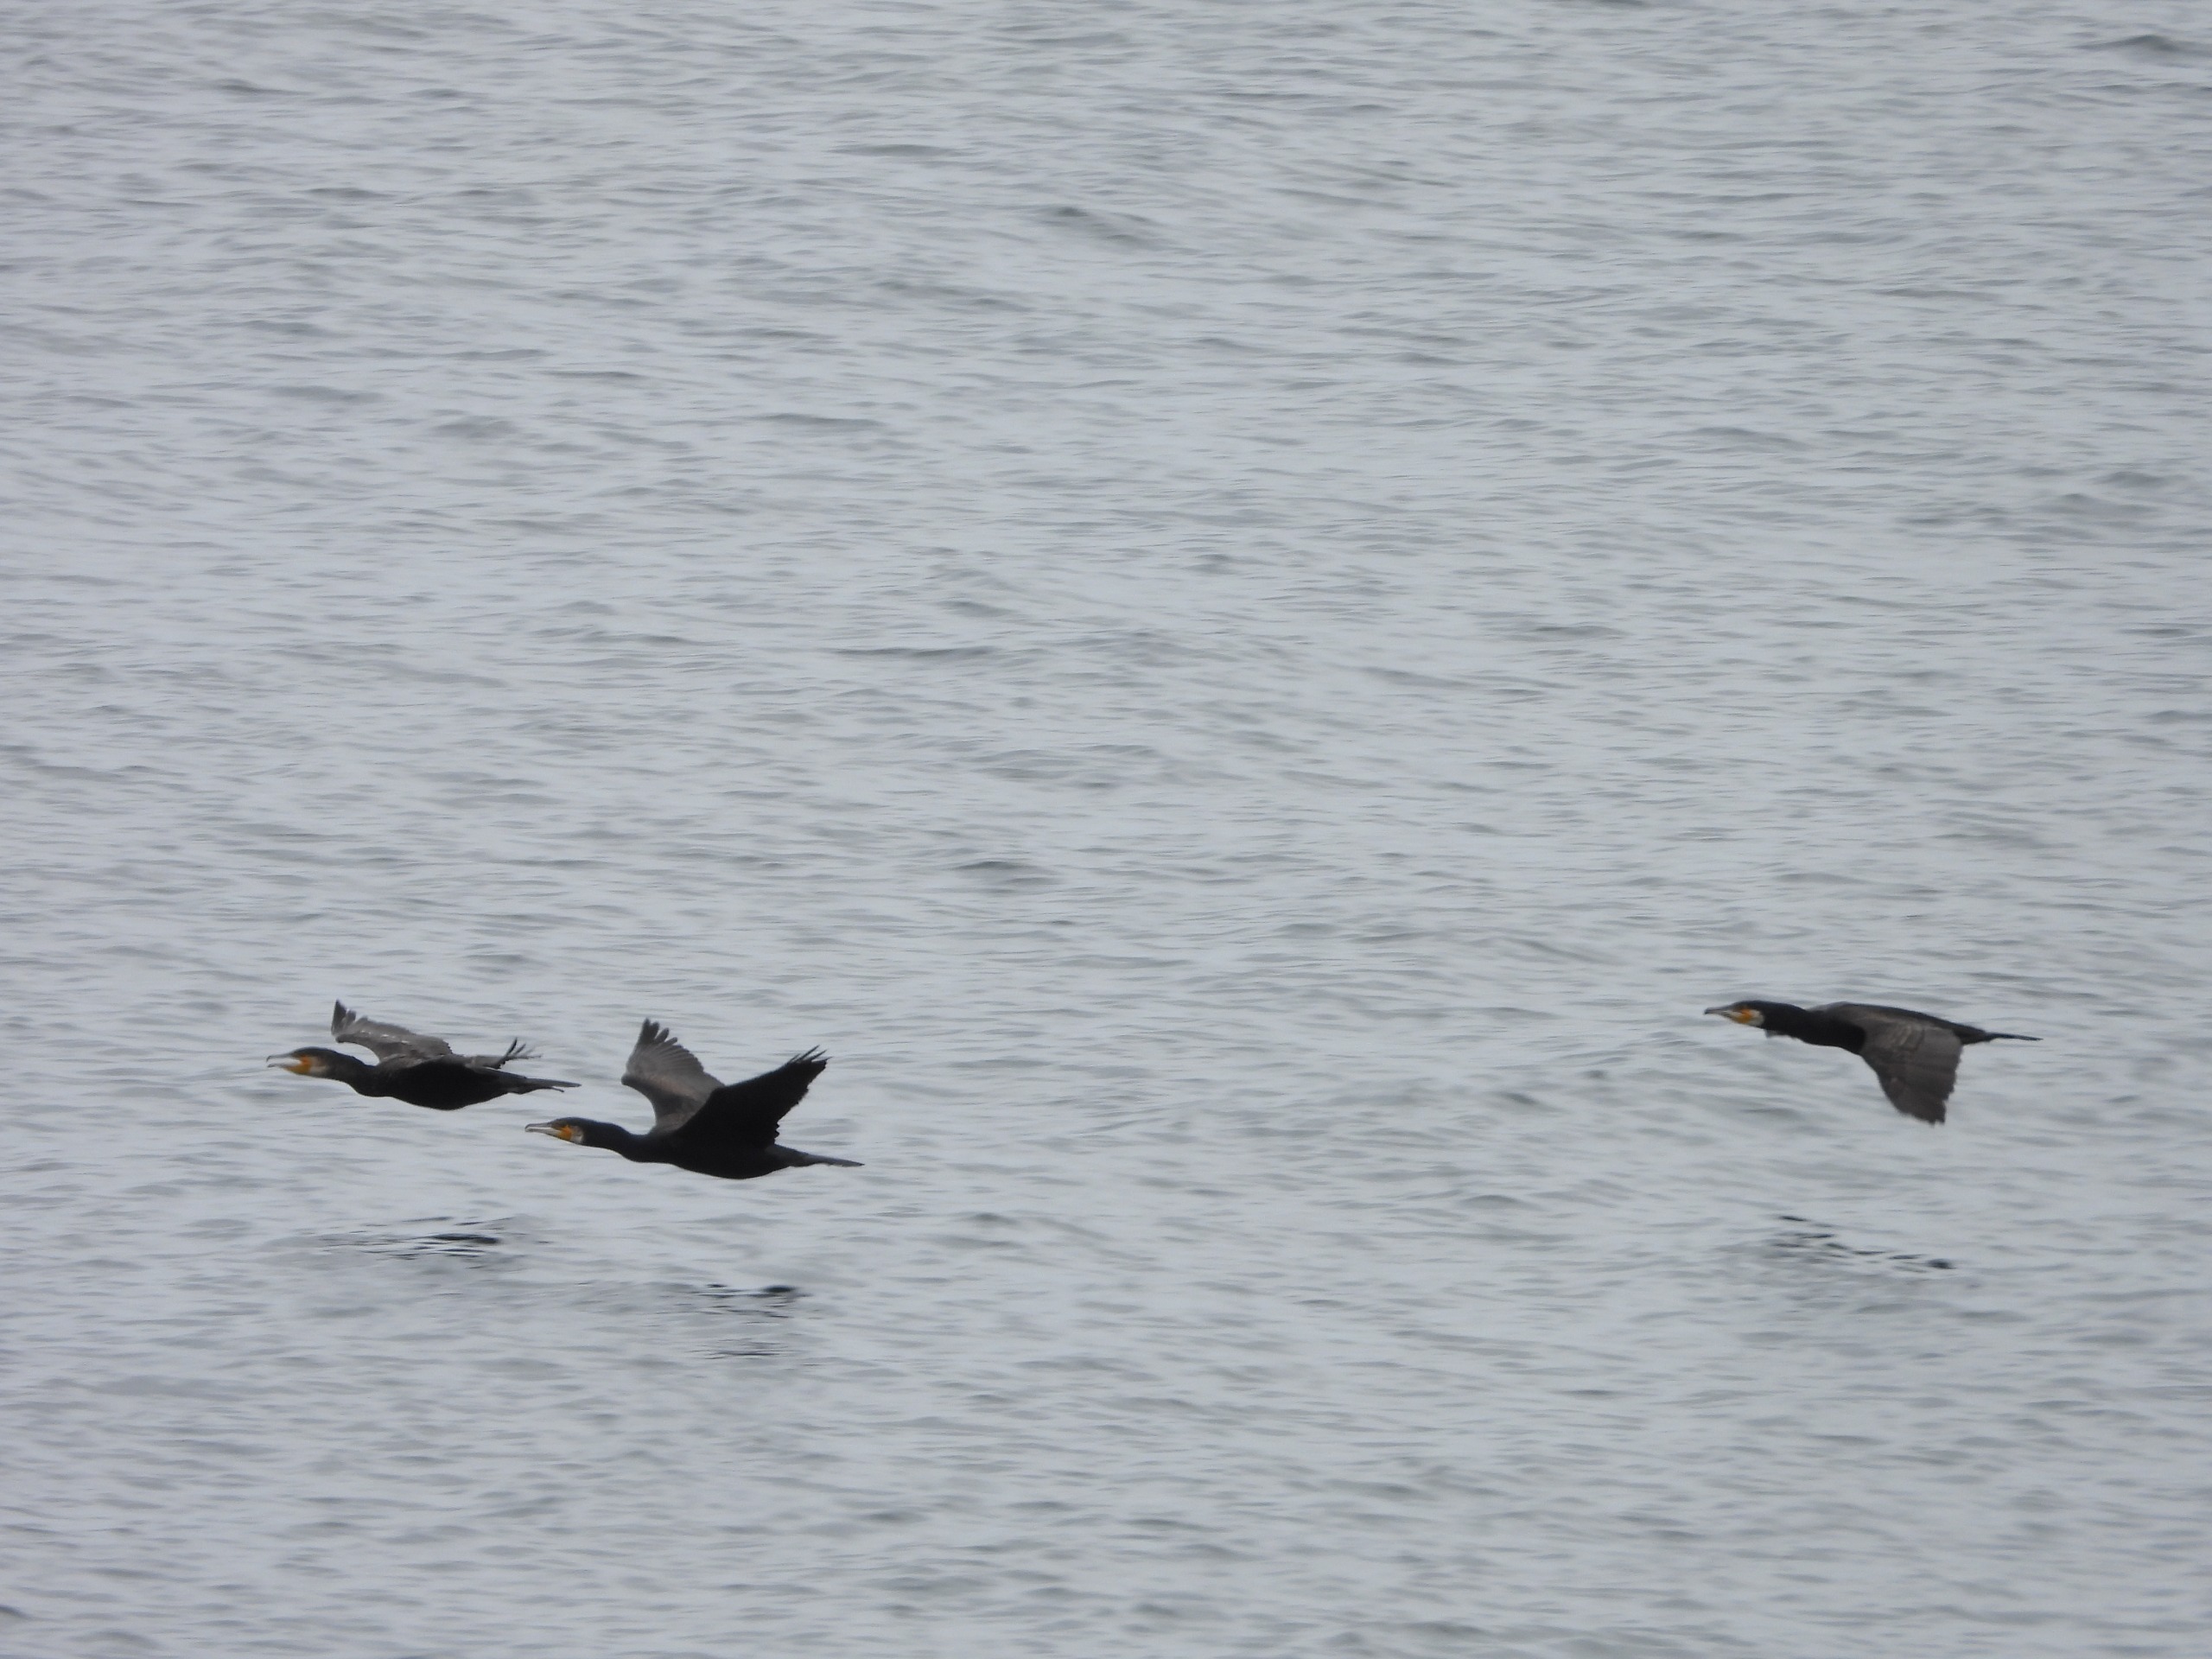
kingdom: Animalia
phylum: Chordata
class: Aves
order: Suliformes
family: Phalacrocoracidae
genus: Phalacrocorax
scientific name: Phalacrocorax carbo
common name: Skarv
